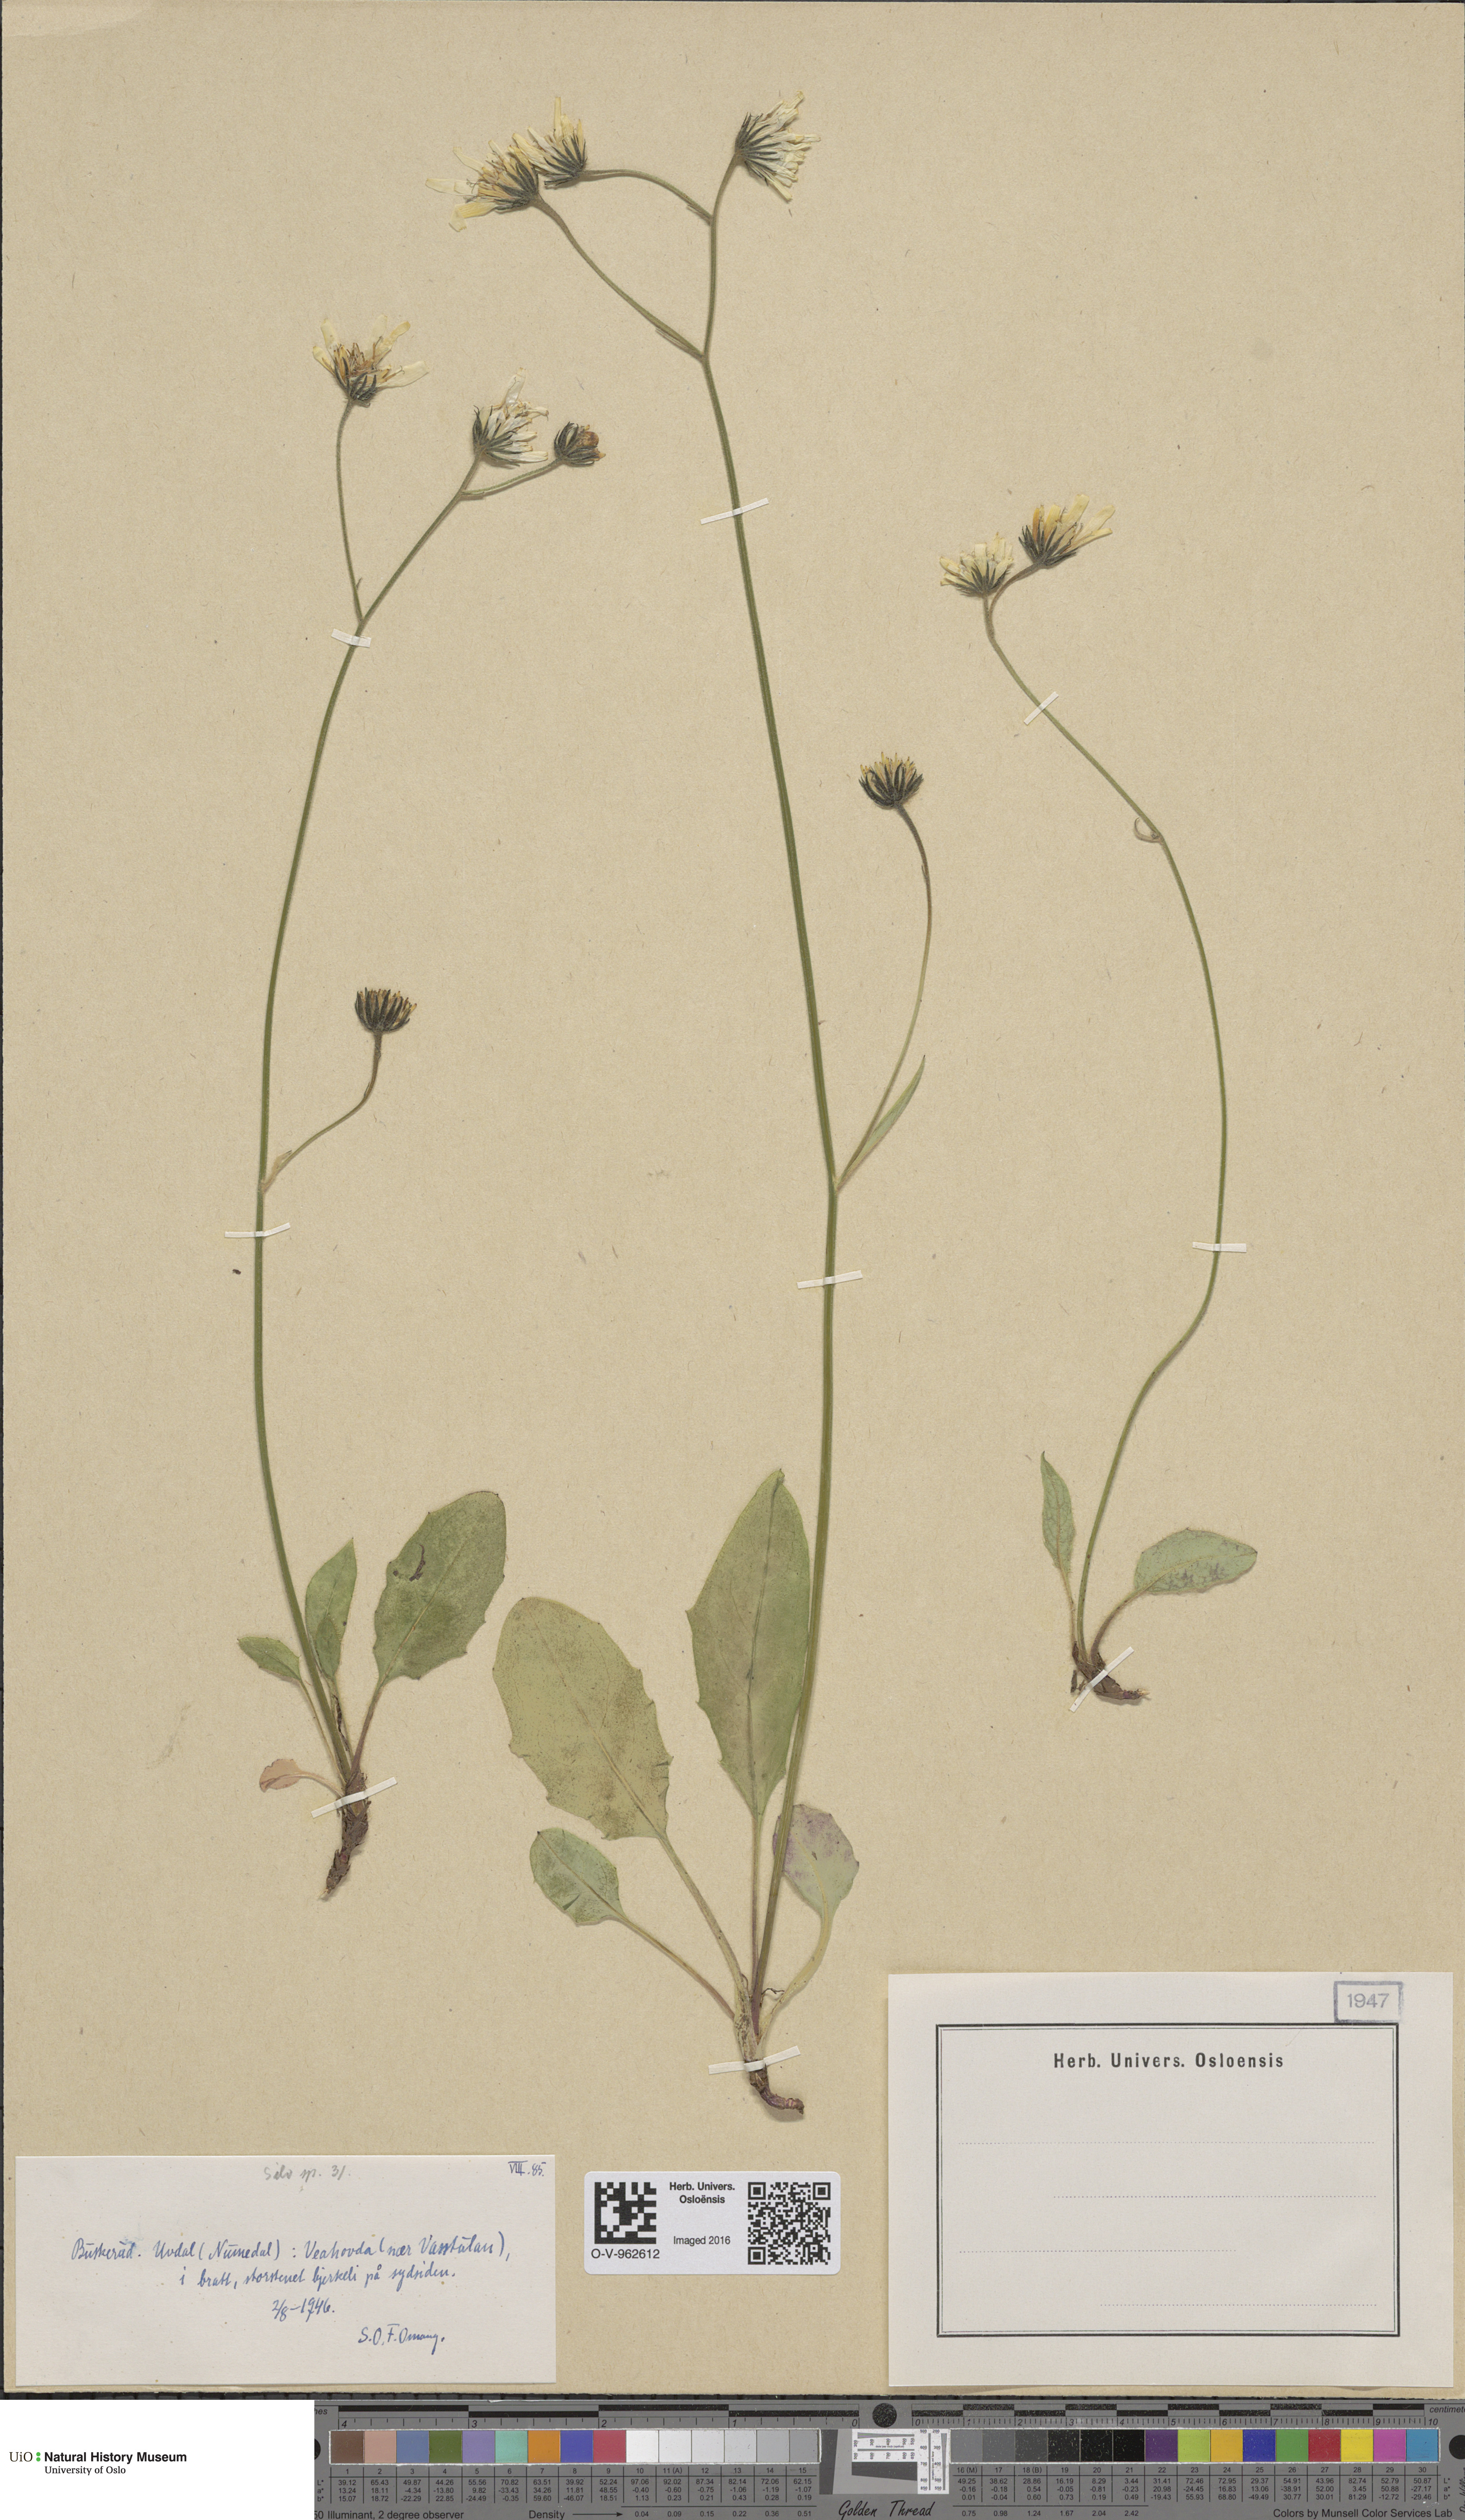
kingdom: Plantae
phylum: Tracheophyta
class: Magnoliopsida
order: Asterales
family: Asteraceae
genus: Hieracium
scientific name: Hieracium
